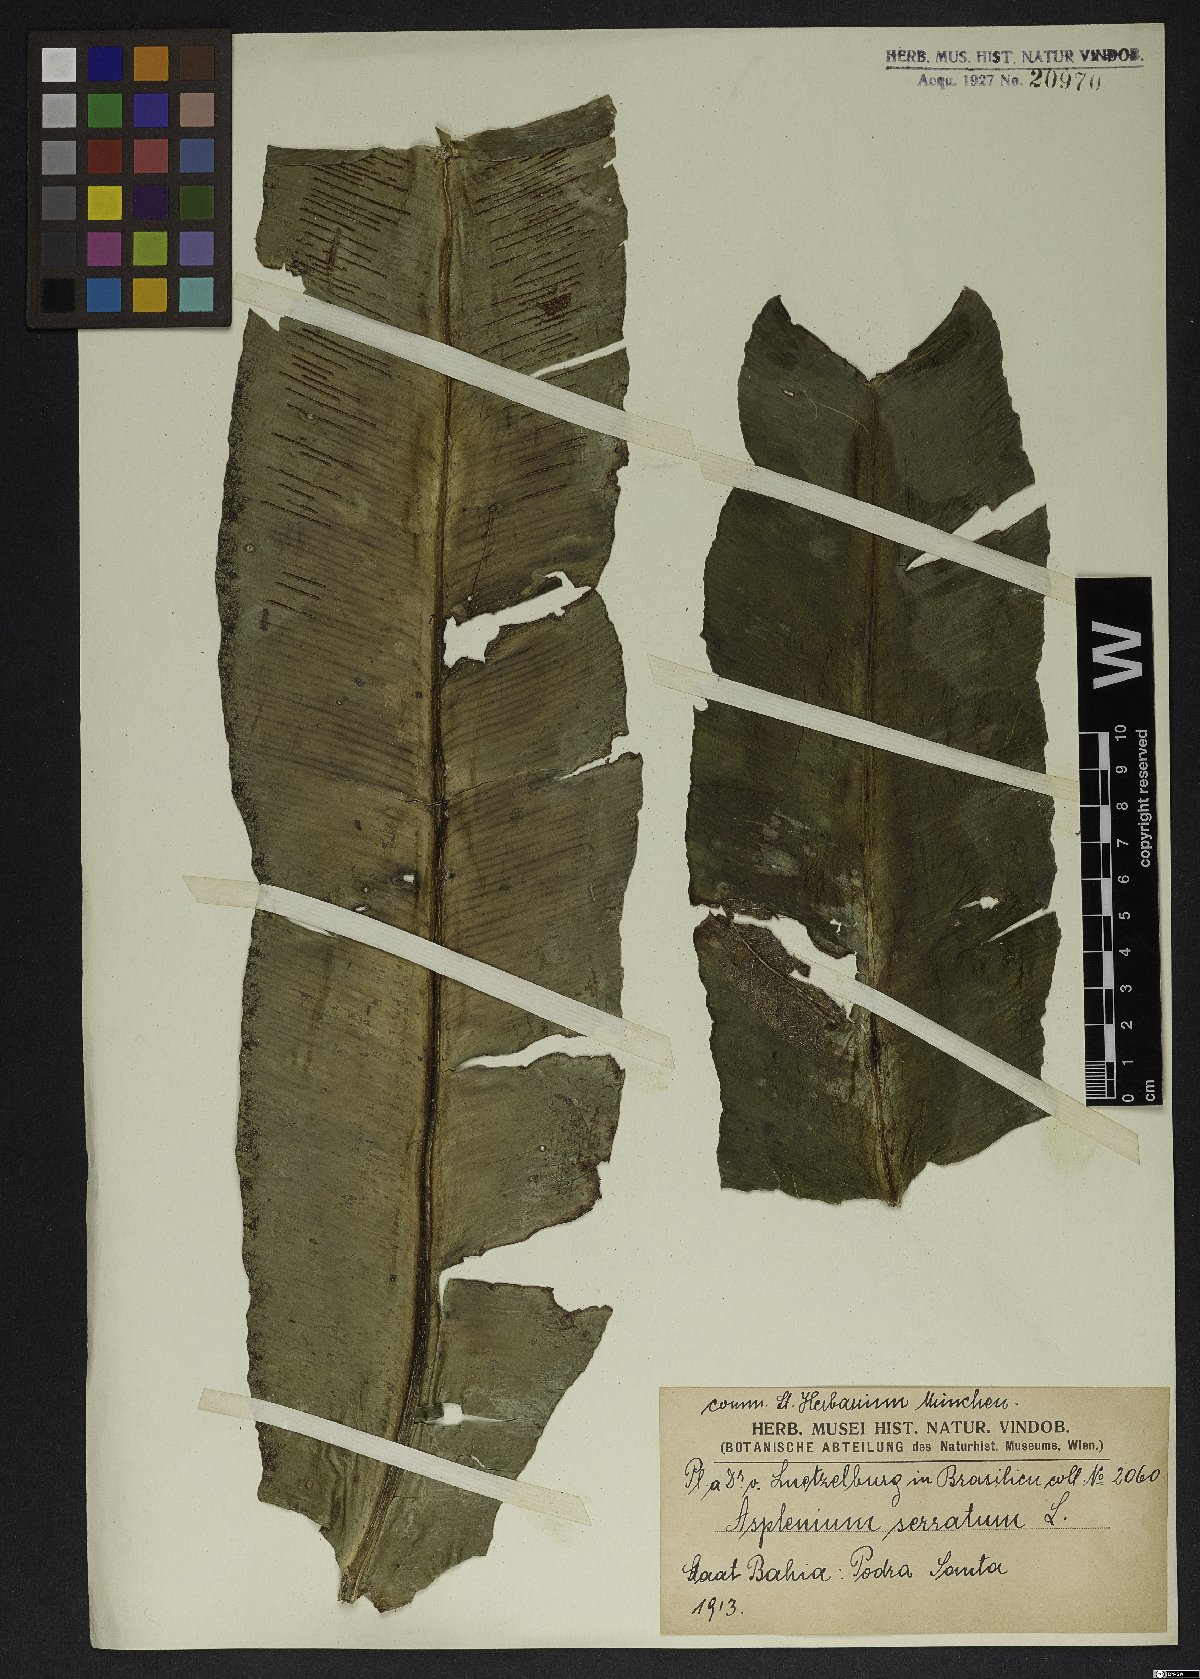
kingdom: Plantae
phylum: Tracheophyta
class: Polypodiopsida
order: Polypodiales
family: Aspleniaceae
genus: Asplenium
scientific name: Asplenium serratum
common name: Wild birdnest fern
